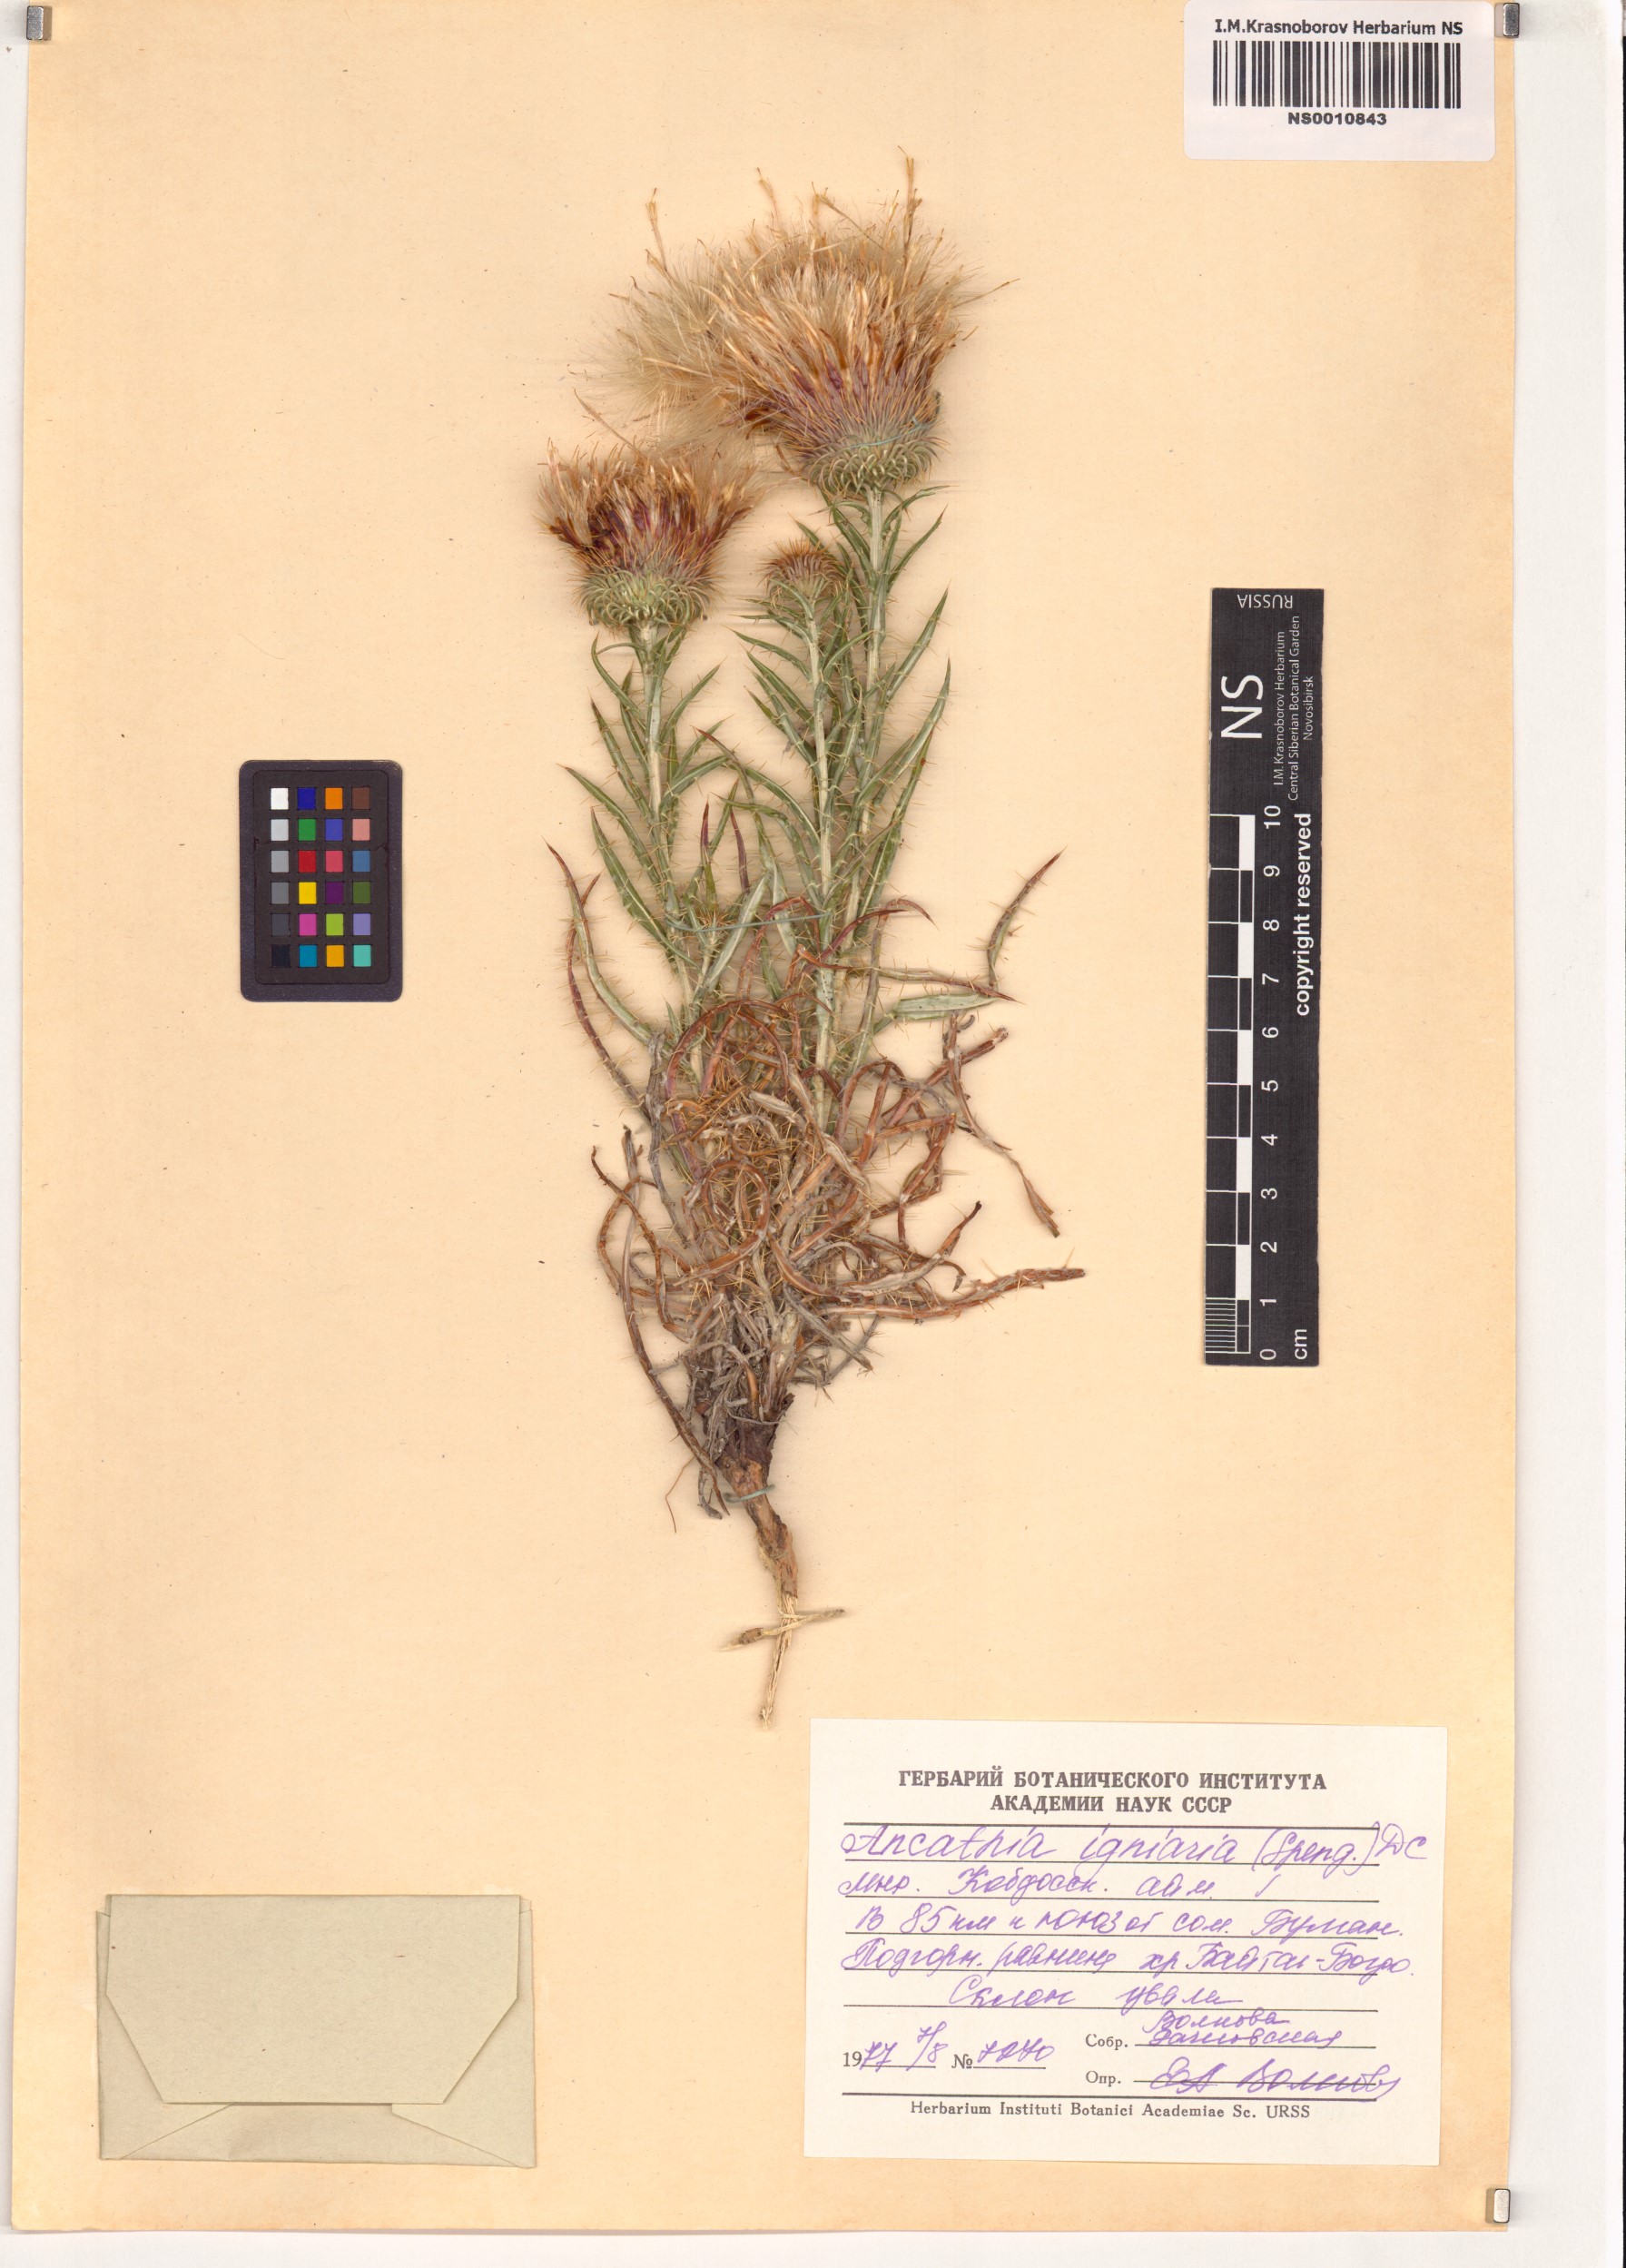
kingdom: Plantae
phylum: Tracheophyta
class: Magnoliopsida
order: Asterales
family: Asteraceae
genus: Ancathia
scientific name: Ancathia igniaria
